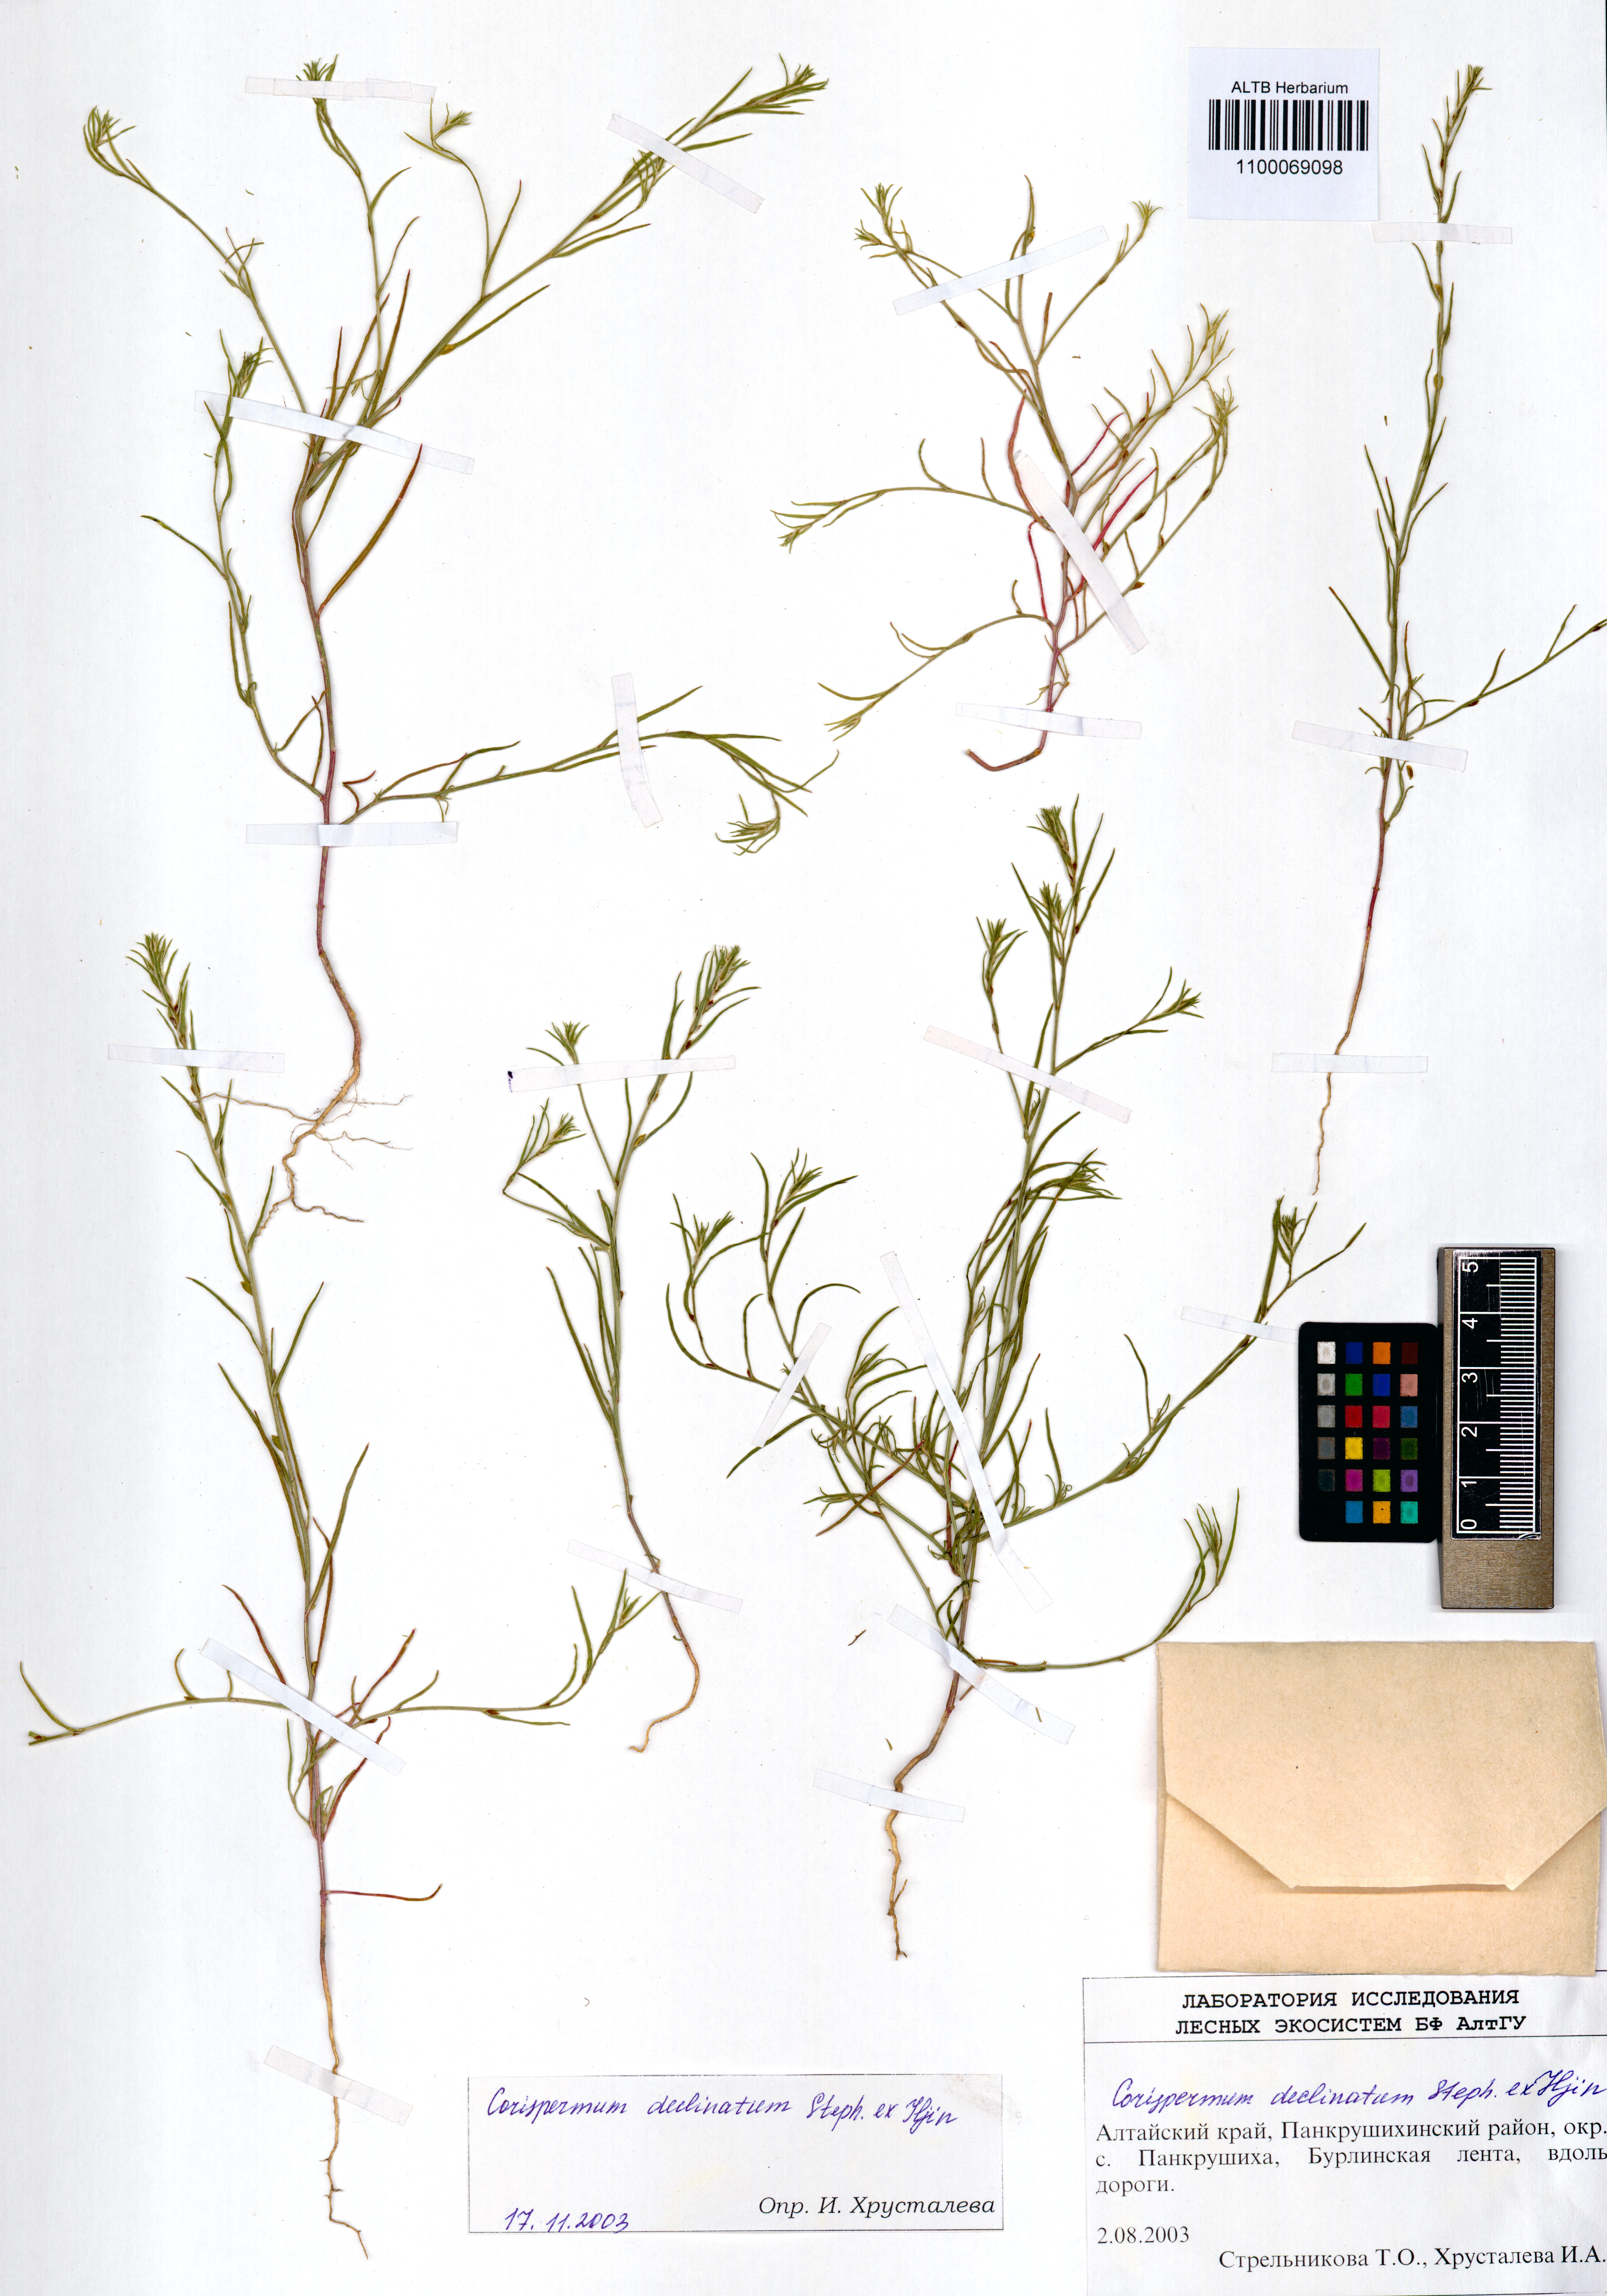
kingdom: Plantae
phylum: Tracheophyta
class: Magnoliopsida
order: Caryophyllales
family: Amaranthaceae
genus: Corispermum
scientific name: Corispermum declinatum
